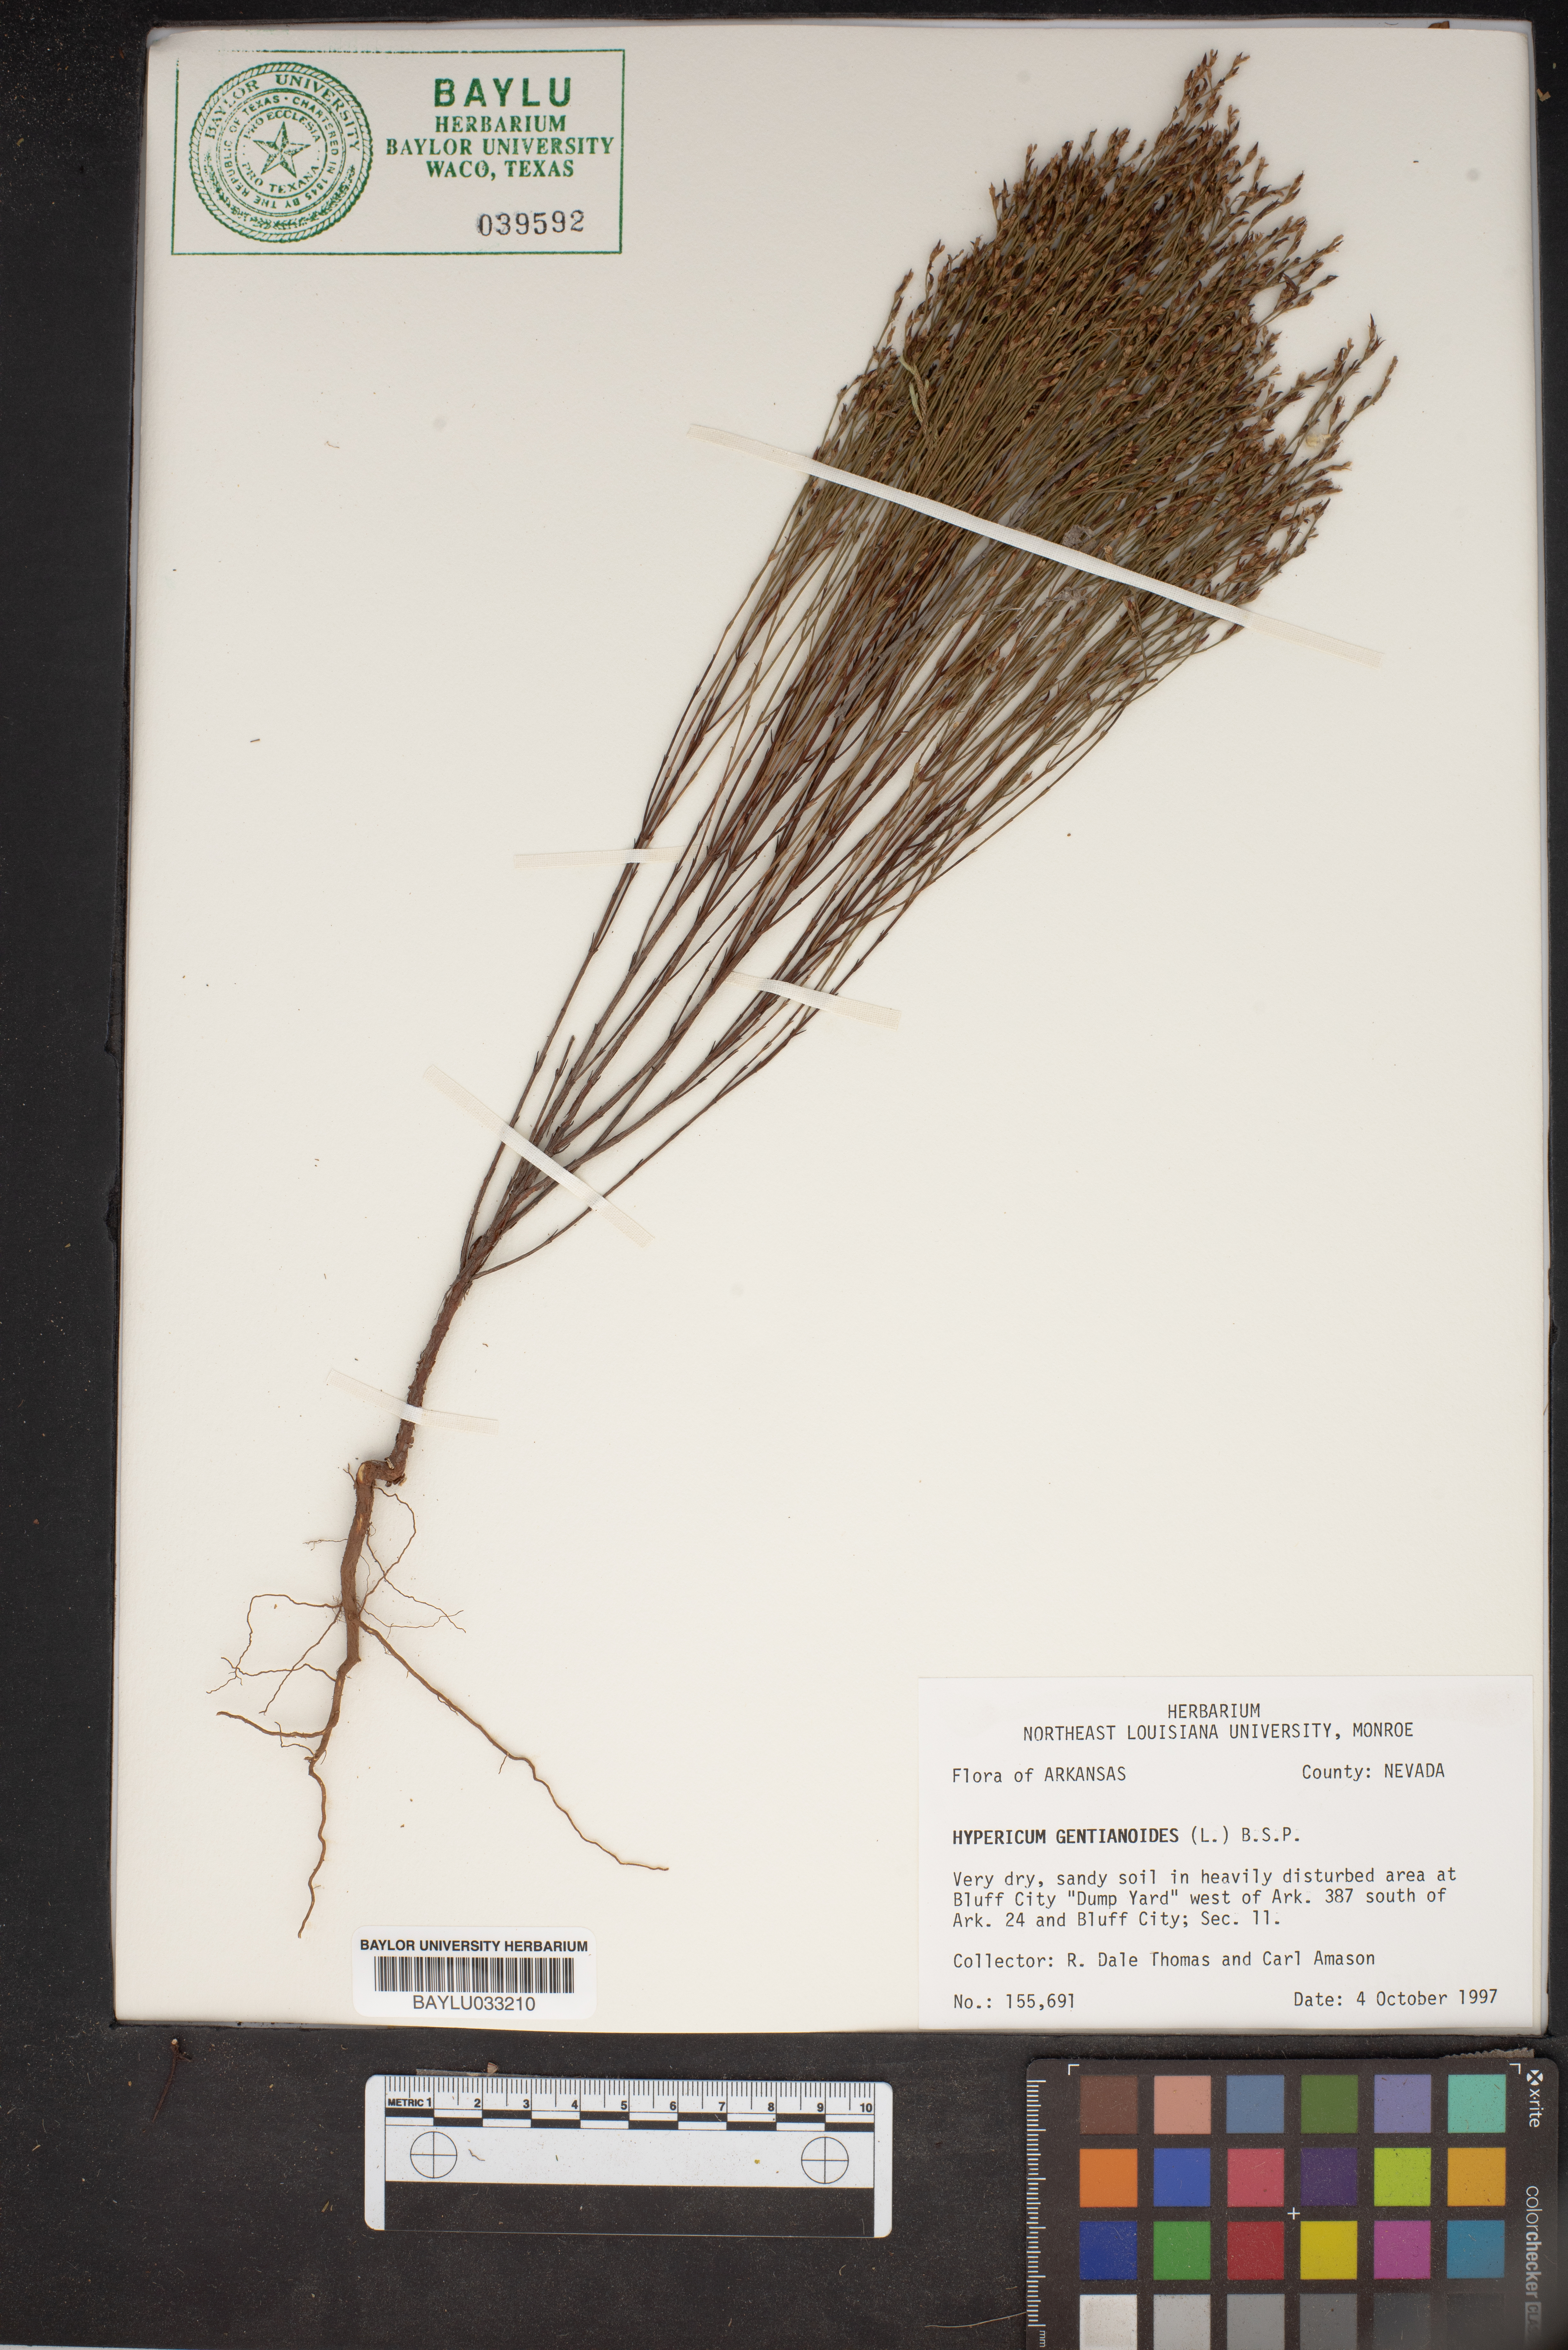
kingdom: Plantae
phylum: Tracheophyta
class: Magnoliopsida
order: Malpighiales
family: Hypericaceae
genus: Hypericum
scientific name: Hypericum gentianoides
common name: Gentian-leaved st. john's-wort
